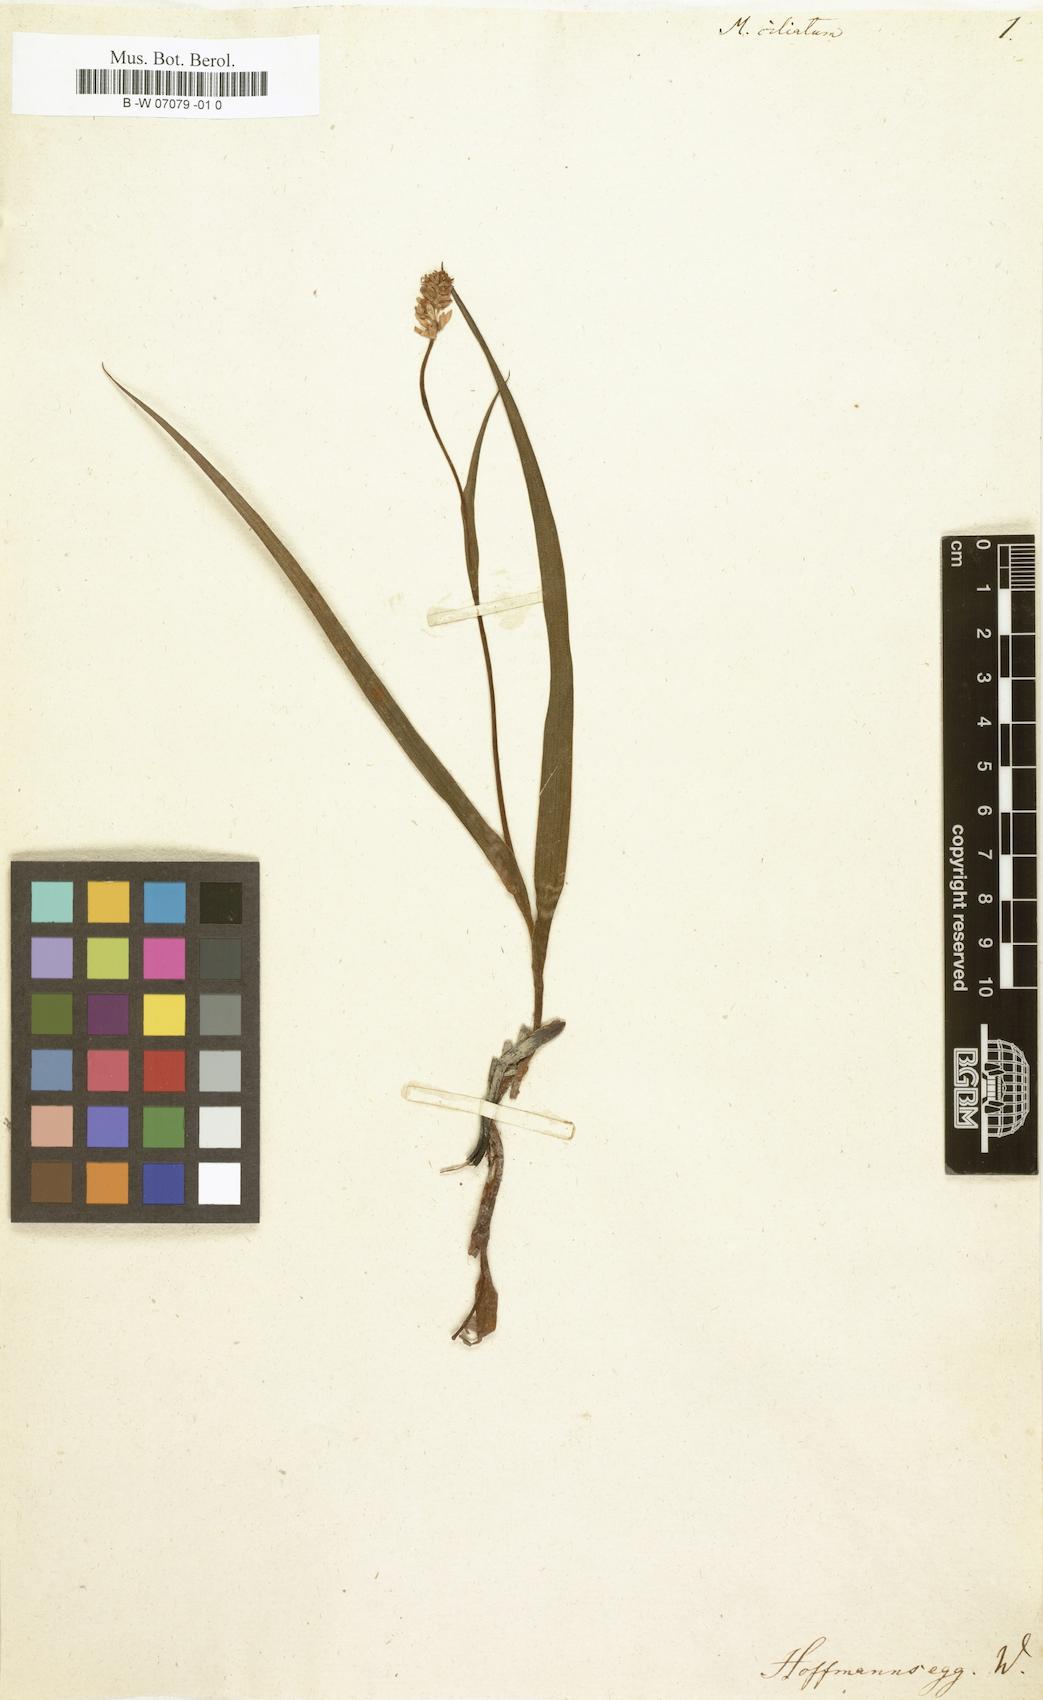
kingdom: Plantae
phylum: Tracheophyta
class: Liliopsida
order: Liliales
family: Melanthiaceae
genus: Melanthium
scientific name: Melanthium ciliatum
